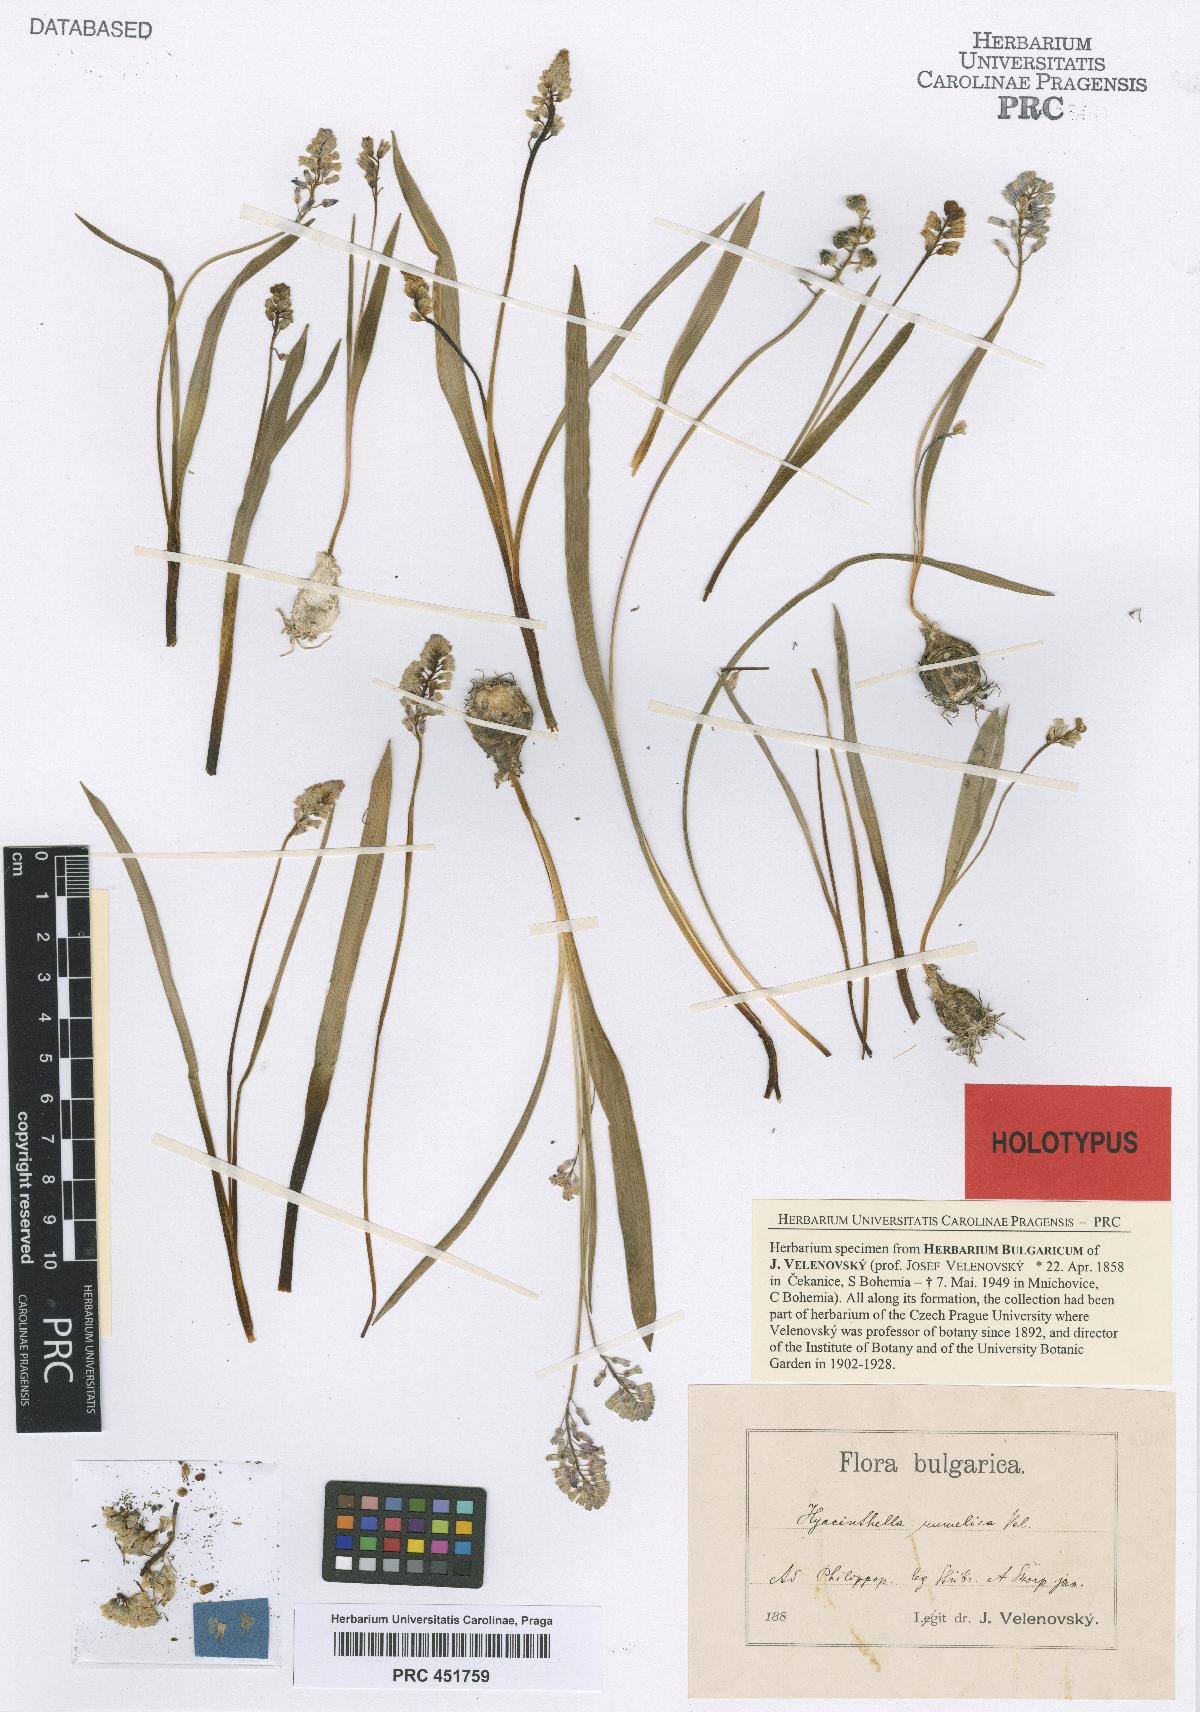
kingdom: Plantae
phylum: Tracheophyta
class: Liliopsida
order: Asparagales
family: Asparagaceae
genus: Hyacinthella
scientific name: Hyacinthella leucophaea
